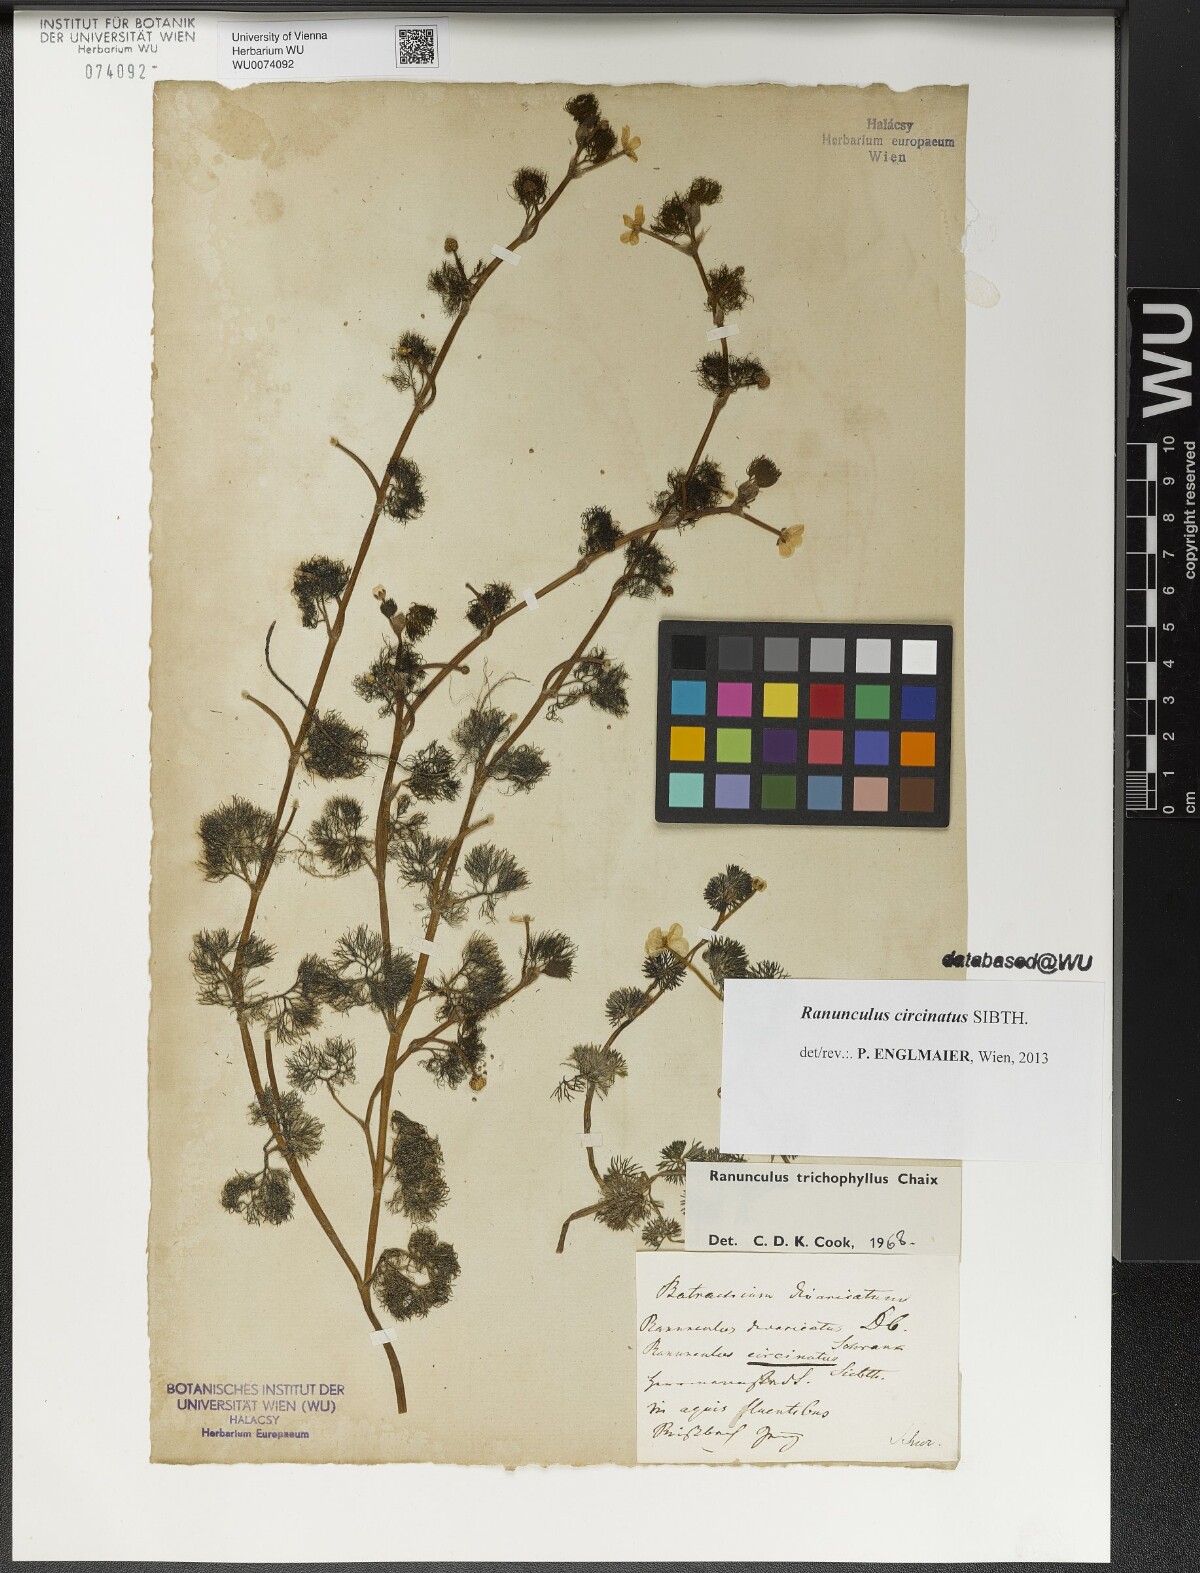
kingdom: Plantae
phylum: Tracheophyta
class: Magnoliopsida
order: Ranunculales
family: Ranunculaceae
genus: Ranunculus
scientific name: Ranunculus circinatus
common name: Fan-leaved water-crowfoot
